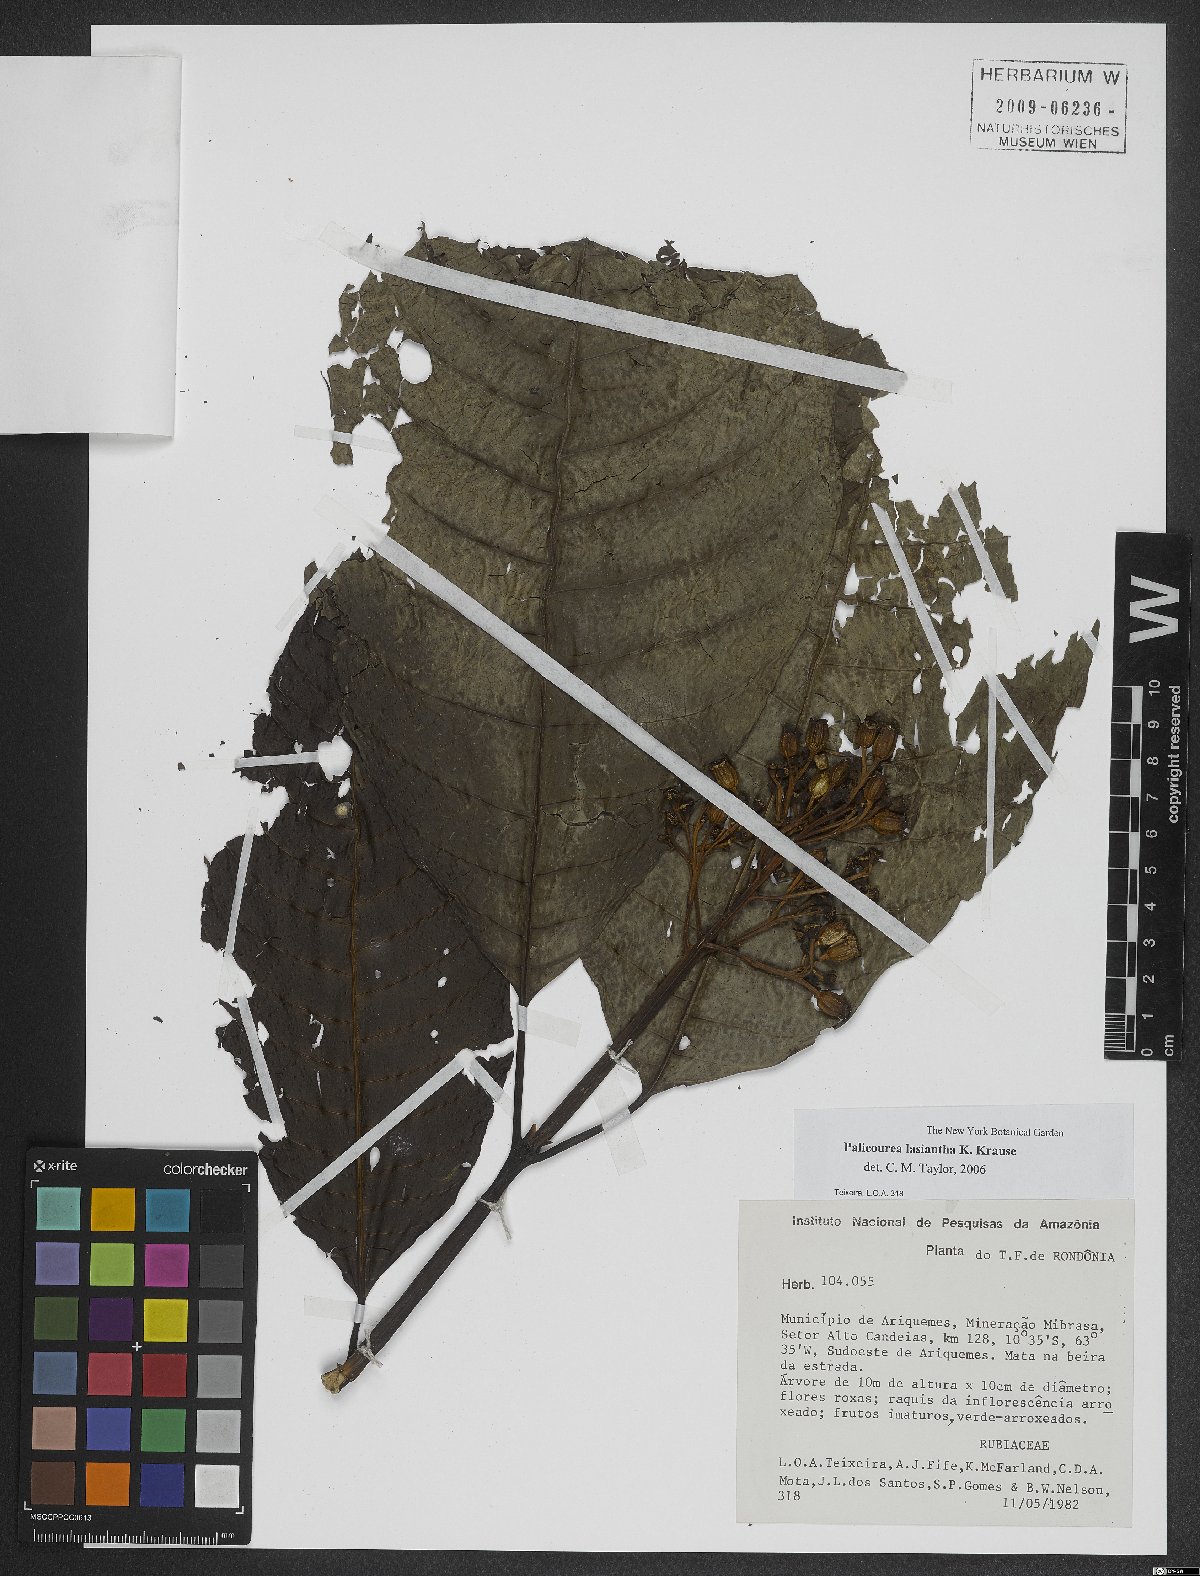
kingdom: Plantae
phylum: Tracheophyta
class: Magnoliopsida
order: Gentianales
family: Rubiaceae
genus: Palicourea
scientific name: Palicourea lasiantha
